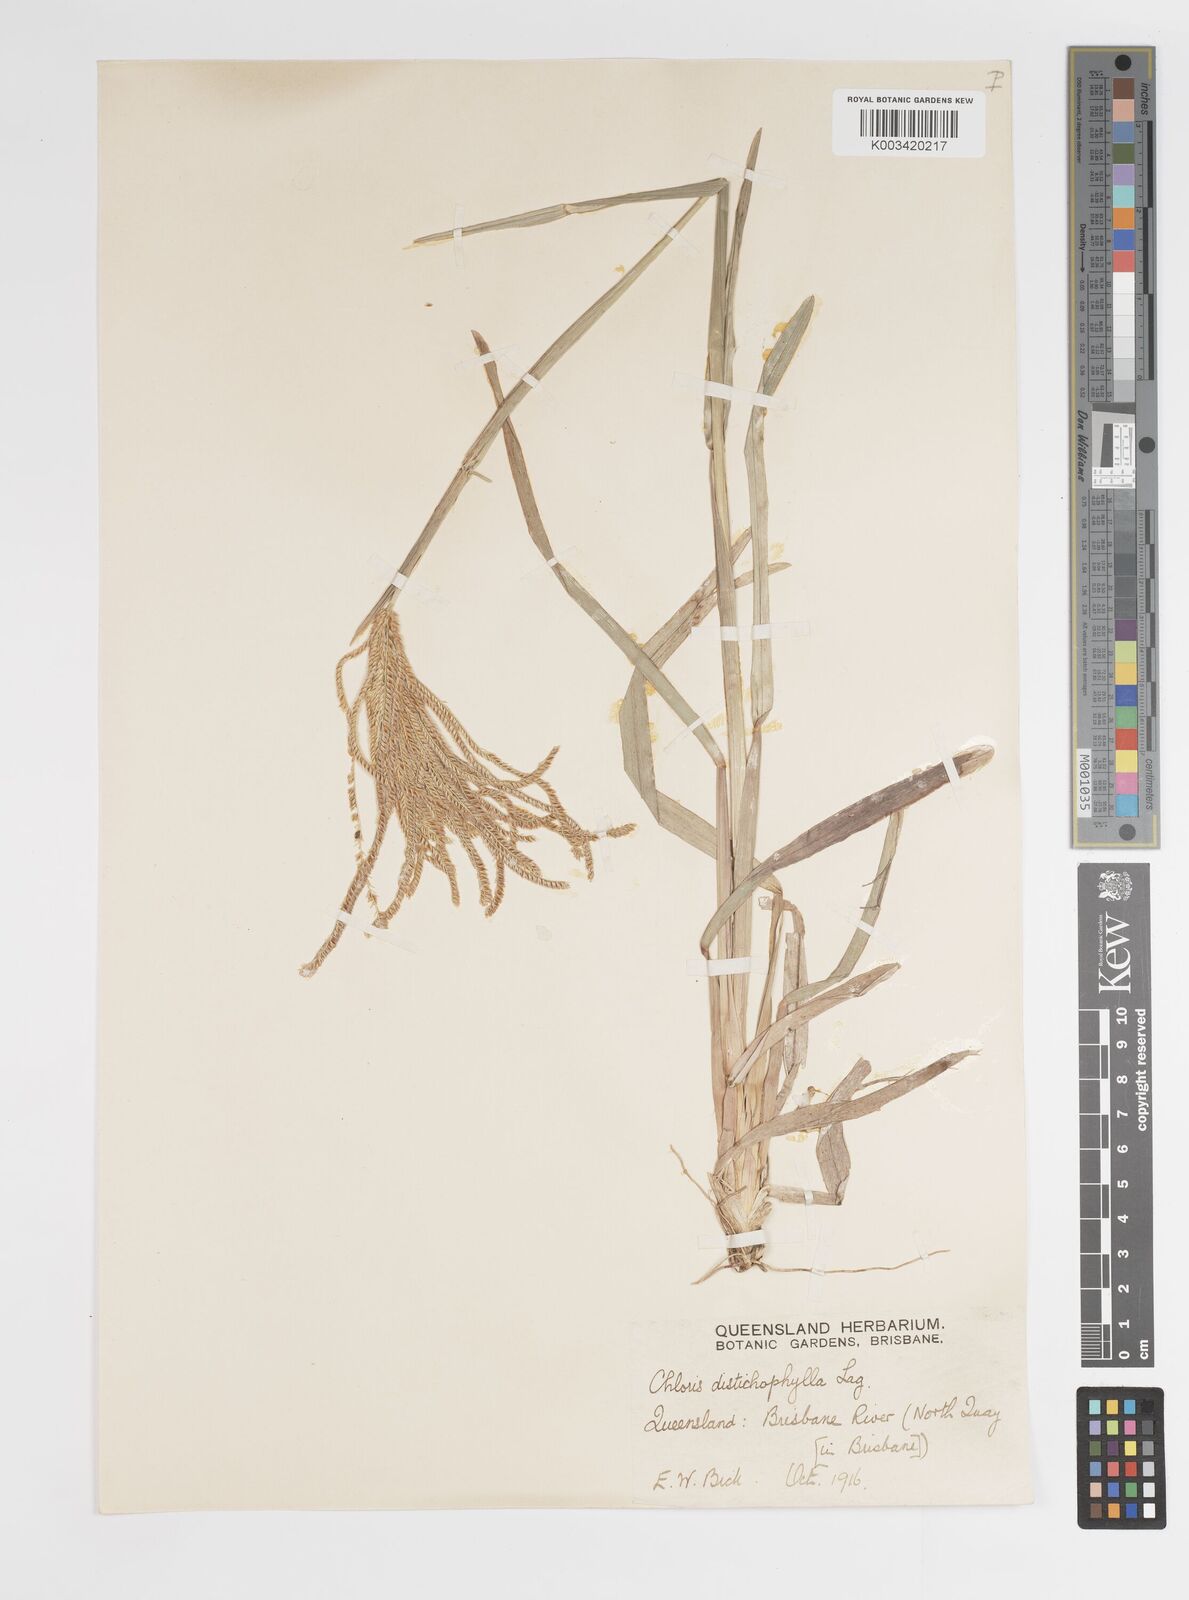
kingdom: Plantae
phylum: Tracheophyta
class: Liliopsida
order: Poales
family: Poaceae
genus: Eustachys
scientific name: Eustachys distichophylla
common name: Weeping fingergrass
